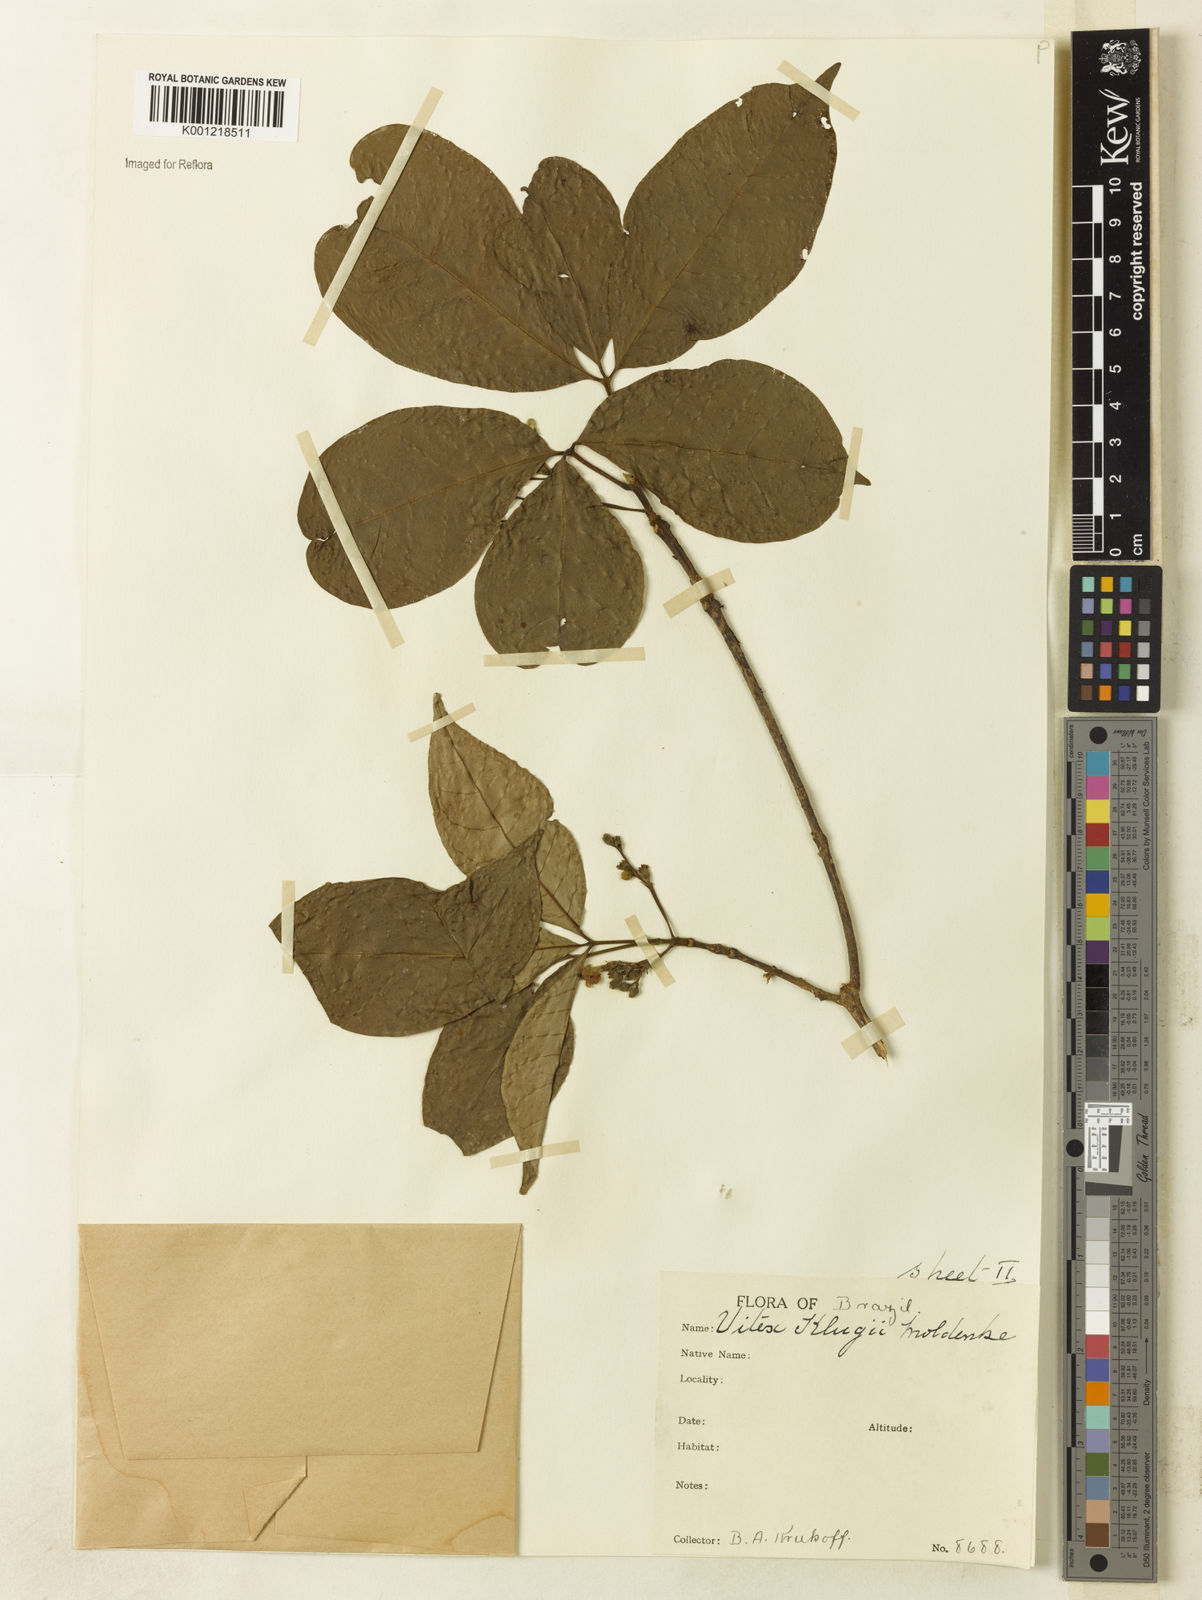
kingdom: Plantae
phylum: Tracheophyta
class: Magnoliopsida
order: Lamiales
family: Lamiaceae
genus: Vitex
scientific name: Vitex klugii
